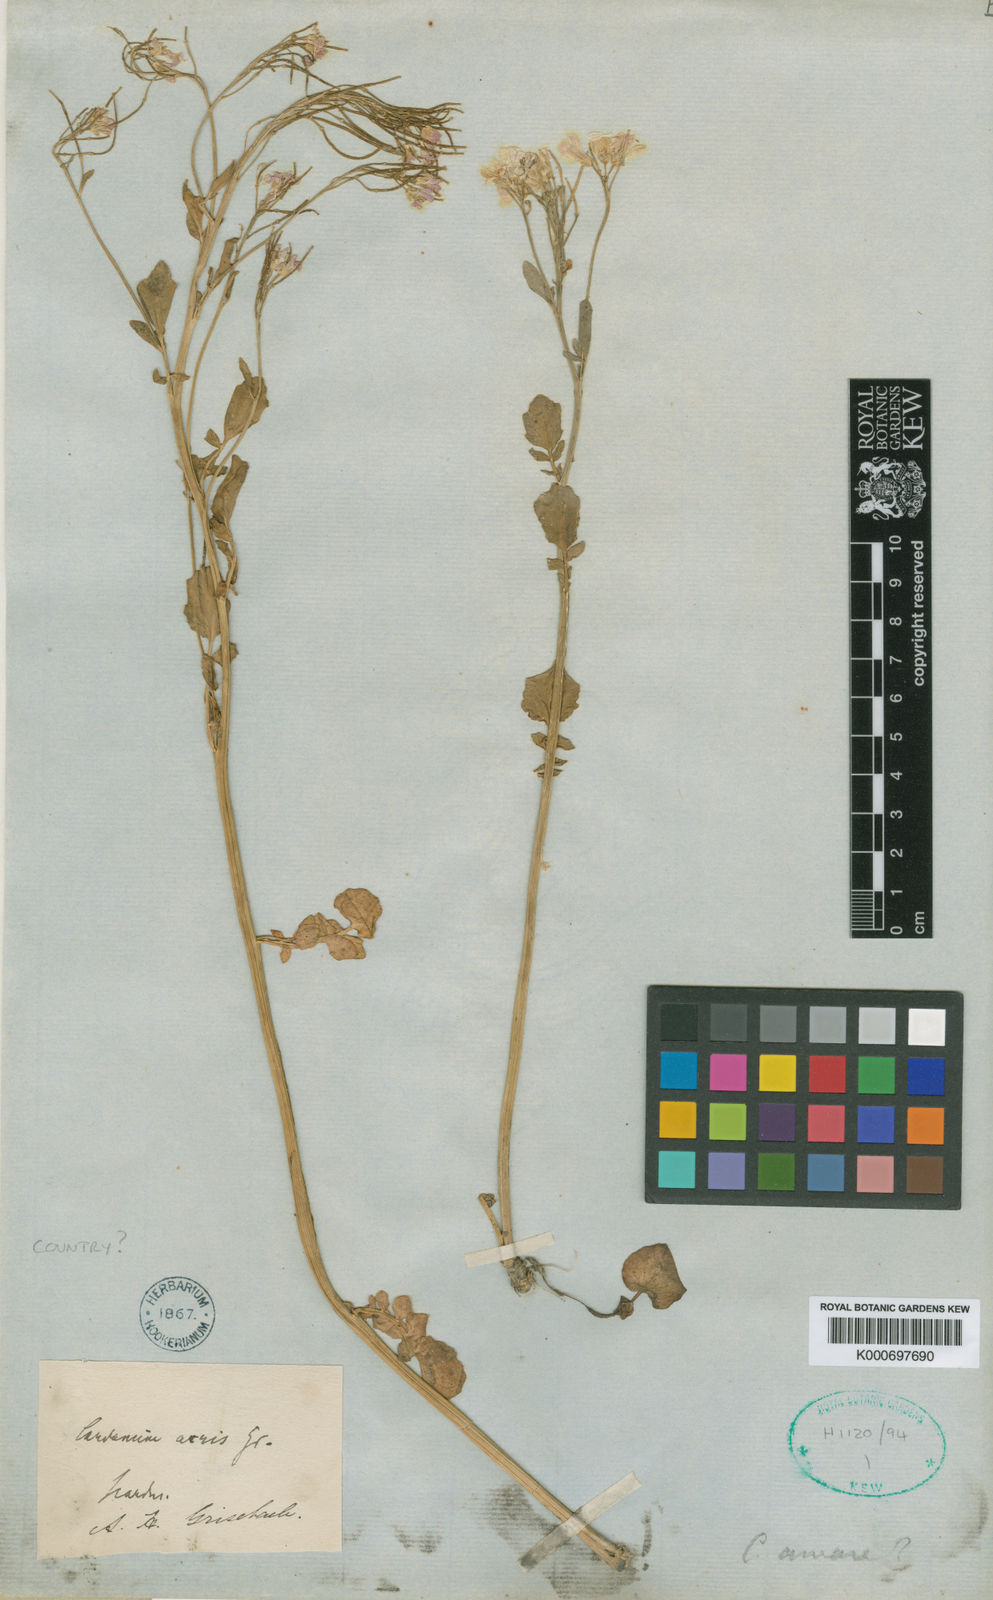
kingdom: Plantae
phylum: Tracheophyta
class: Magnoliopsida
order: Brassicales
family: Brassicaceae
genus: Cardamine
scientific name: Cardamine raphanifolia
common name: Greater cuckooflower
